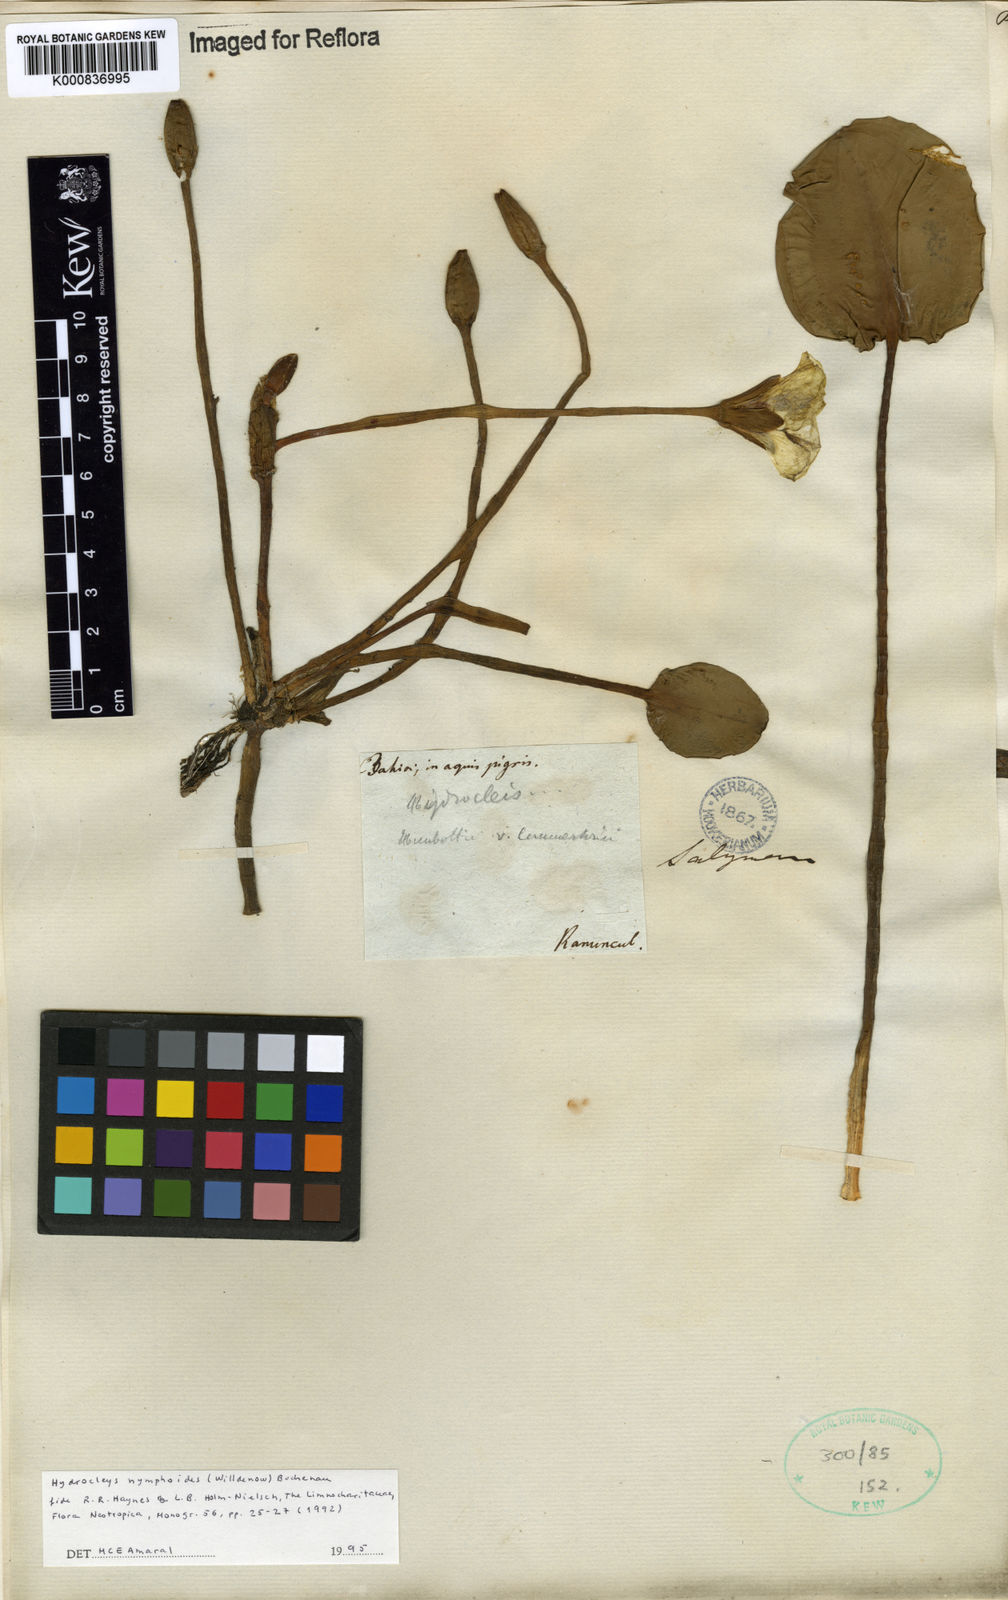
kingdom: Plantae
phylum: Tracheophyta
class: Liliopsida
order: Alismatales
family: Alismataceae
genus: Hydrocleys
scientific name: Hydrocleys nymphoides
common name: Water-poppy
